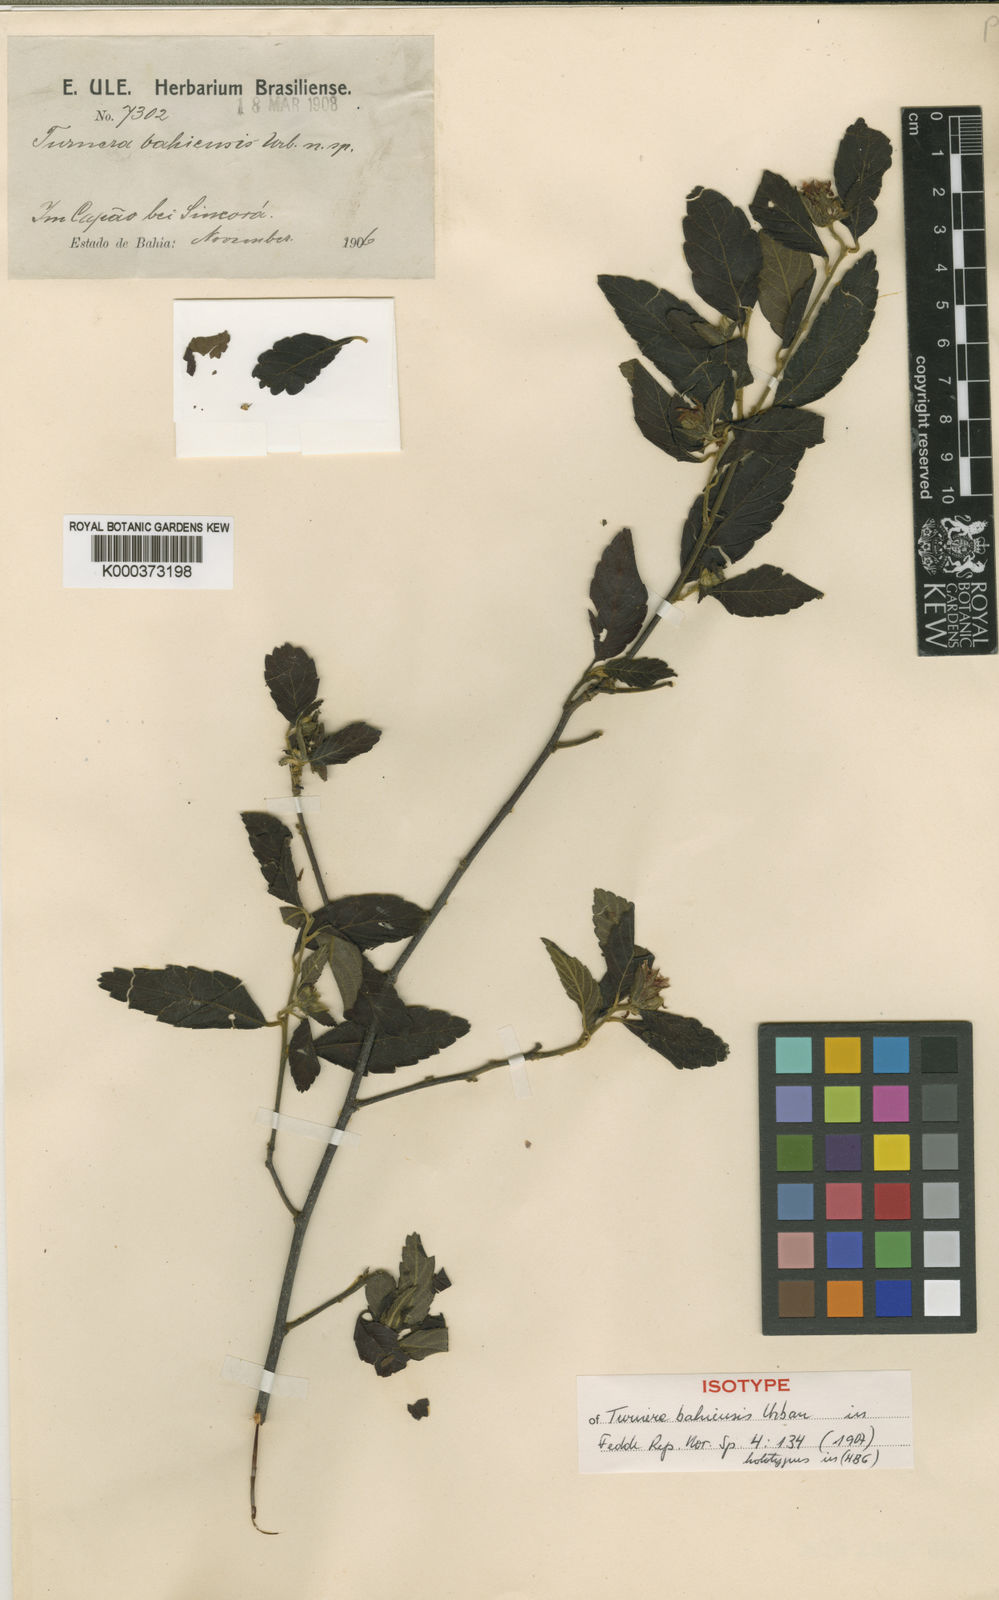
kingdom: Plantae
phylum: Tracheophyta
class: Magnoliopsida
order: Malpighiales
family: Turneraceae
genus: Turnera
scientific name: Turnera bahiensis
